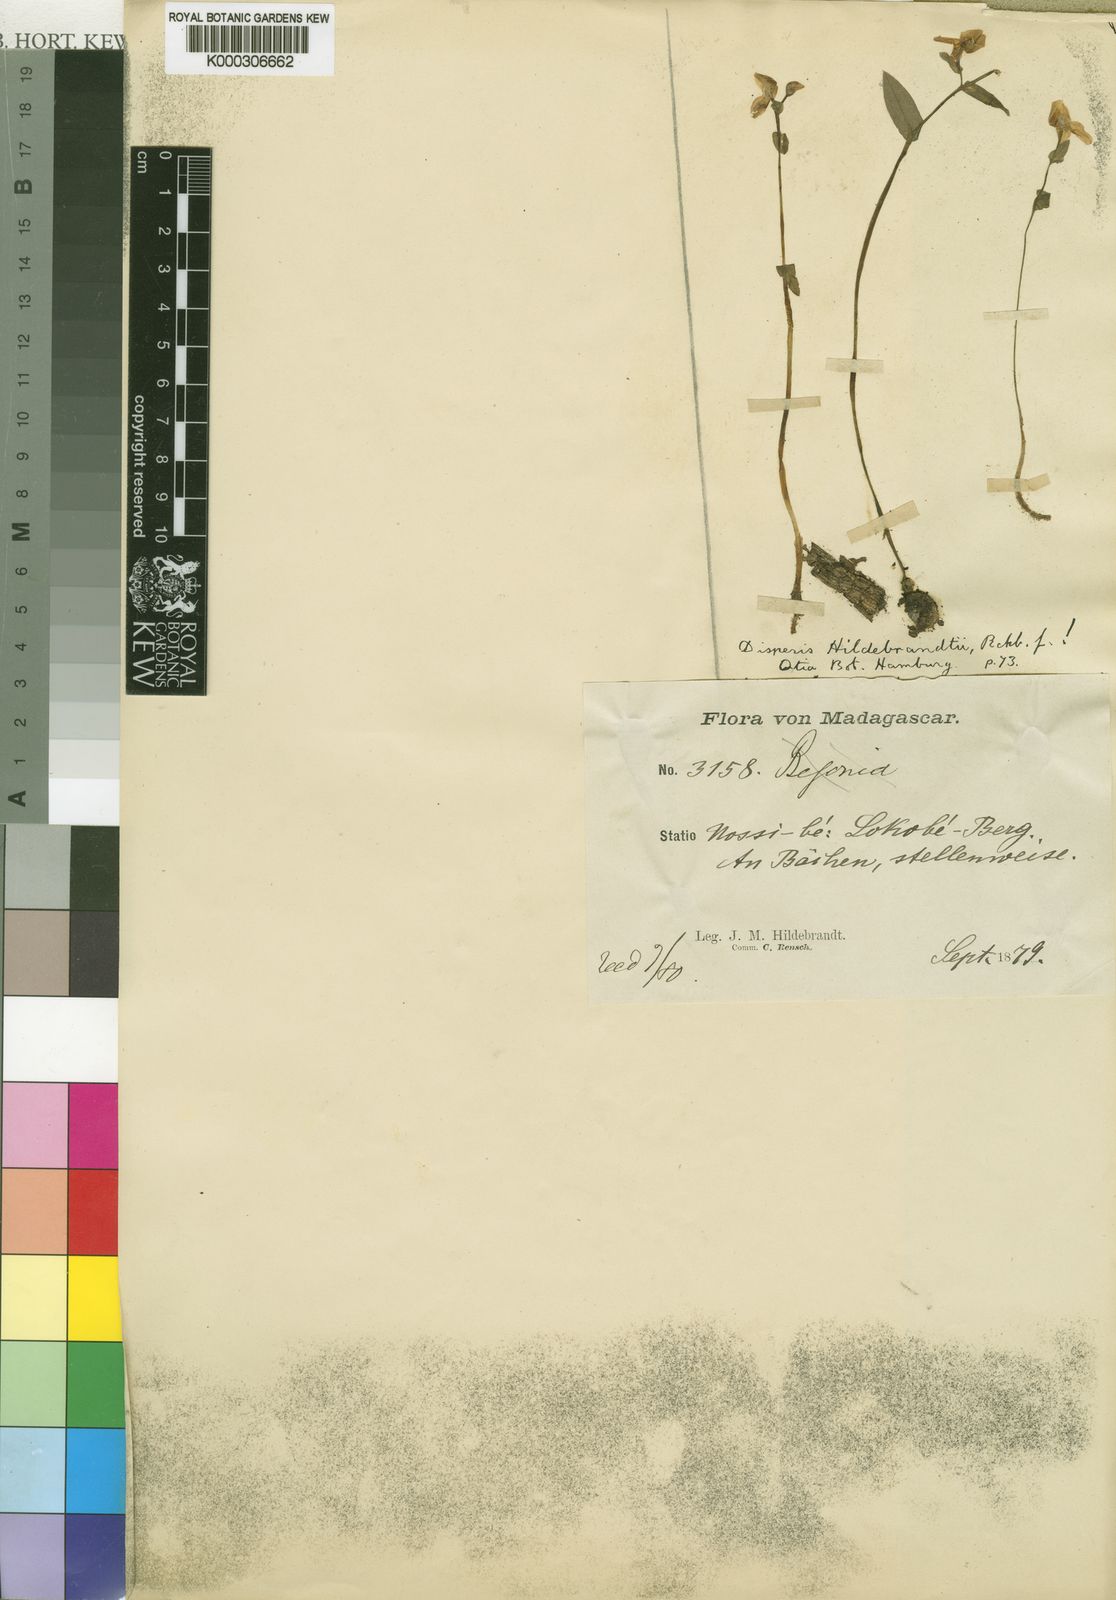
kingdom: Plantae
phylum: Tracheophyta
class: Liliopsida
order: Asparagales
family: Orchidaceae
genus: Disperis
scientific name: Disperis hildebrandtii
